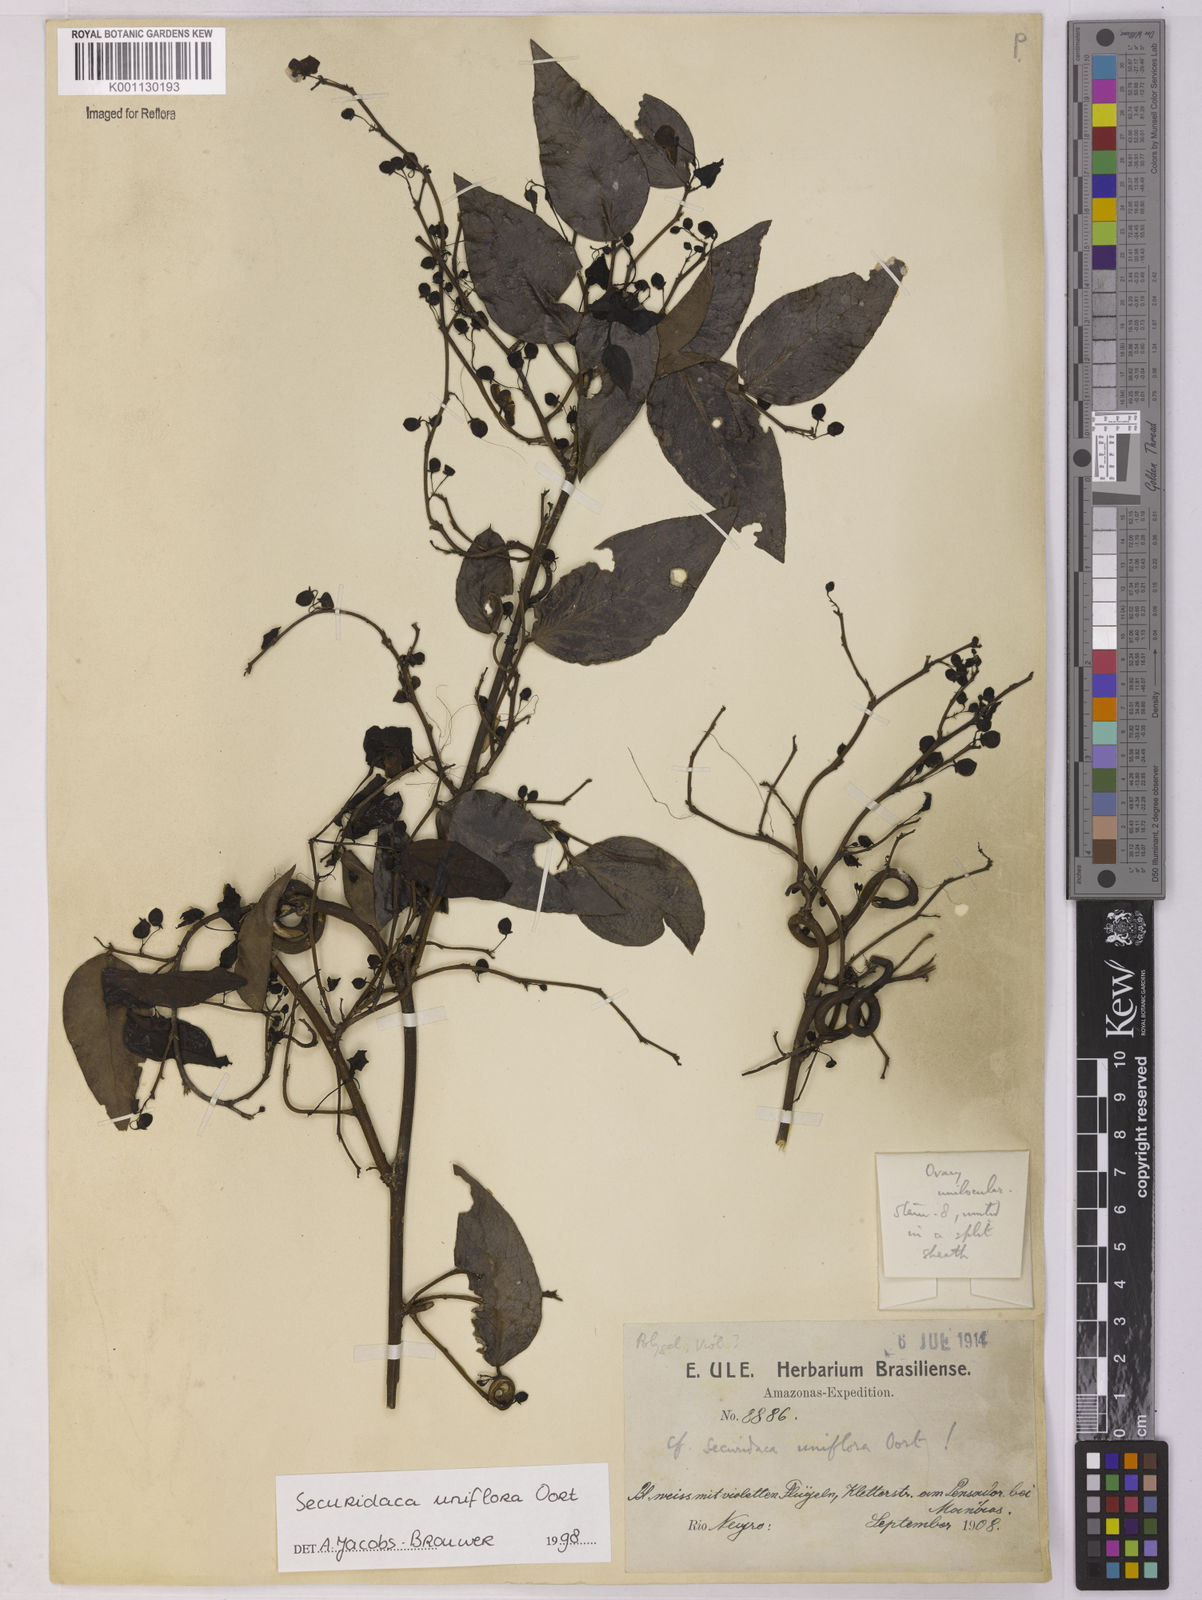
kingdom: Plantae
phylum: Tracheophyta
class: Magnoliopsida
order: Fabales
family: Polygalaceae
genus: Securidaca
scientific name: Securidaca uniflora
